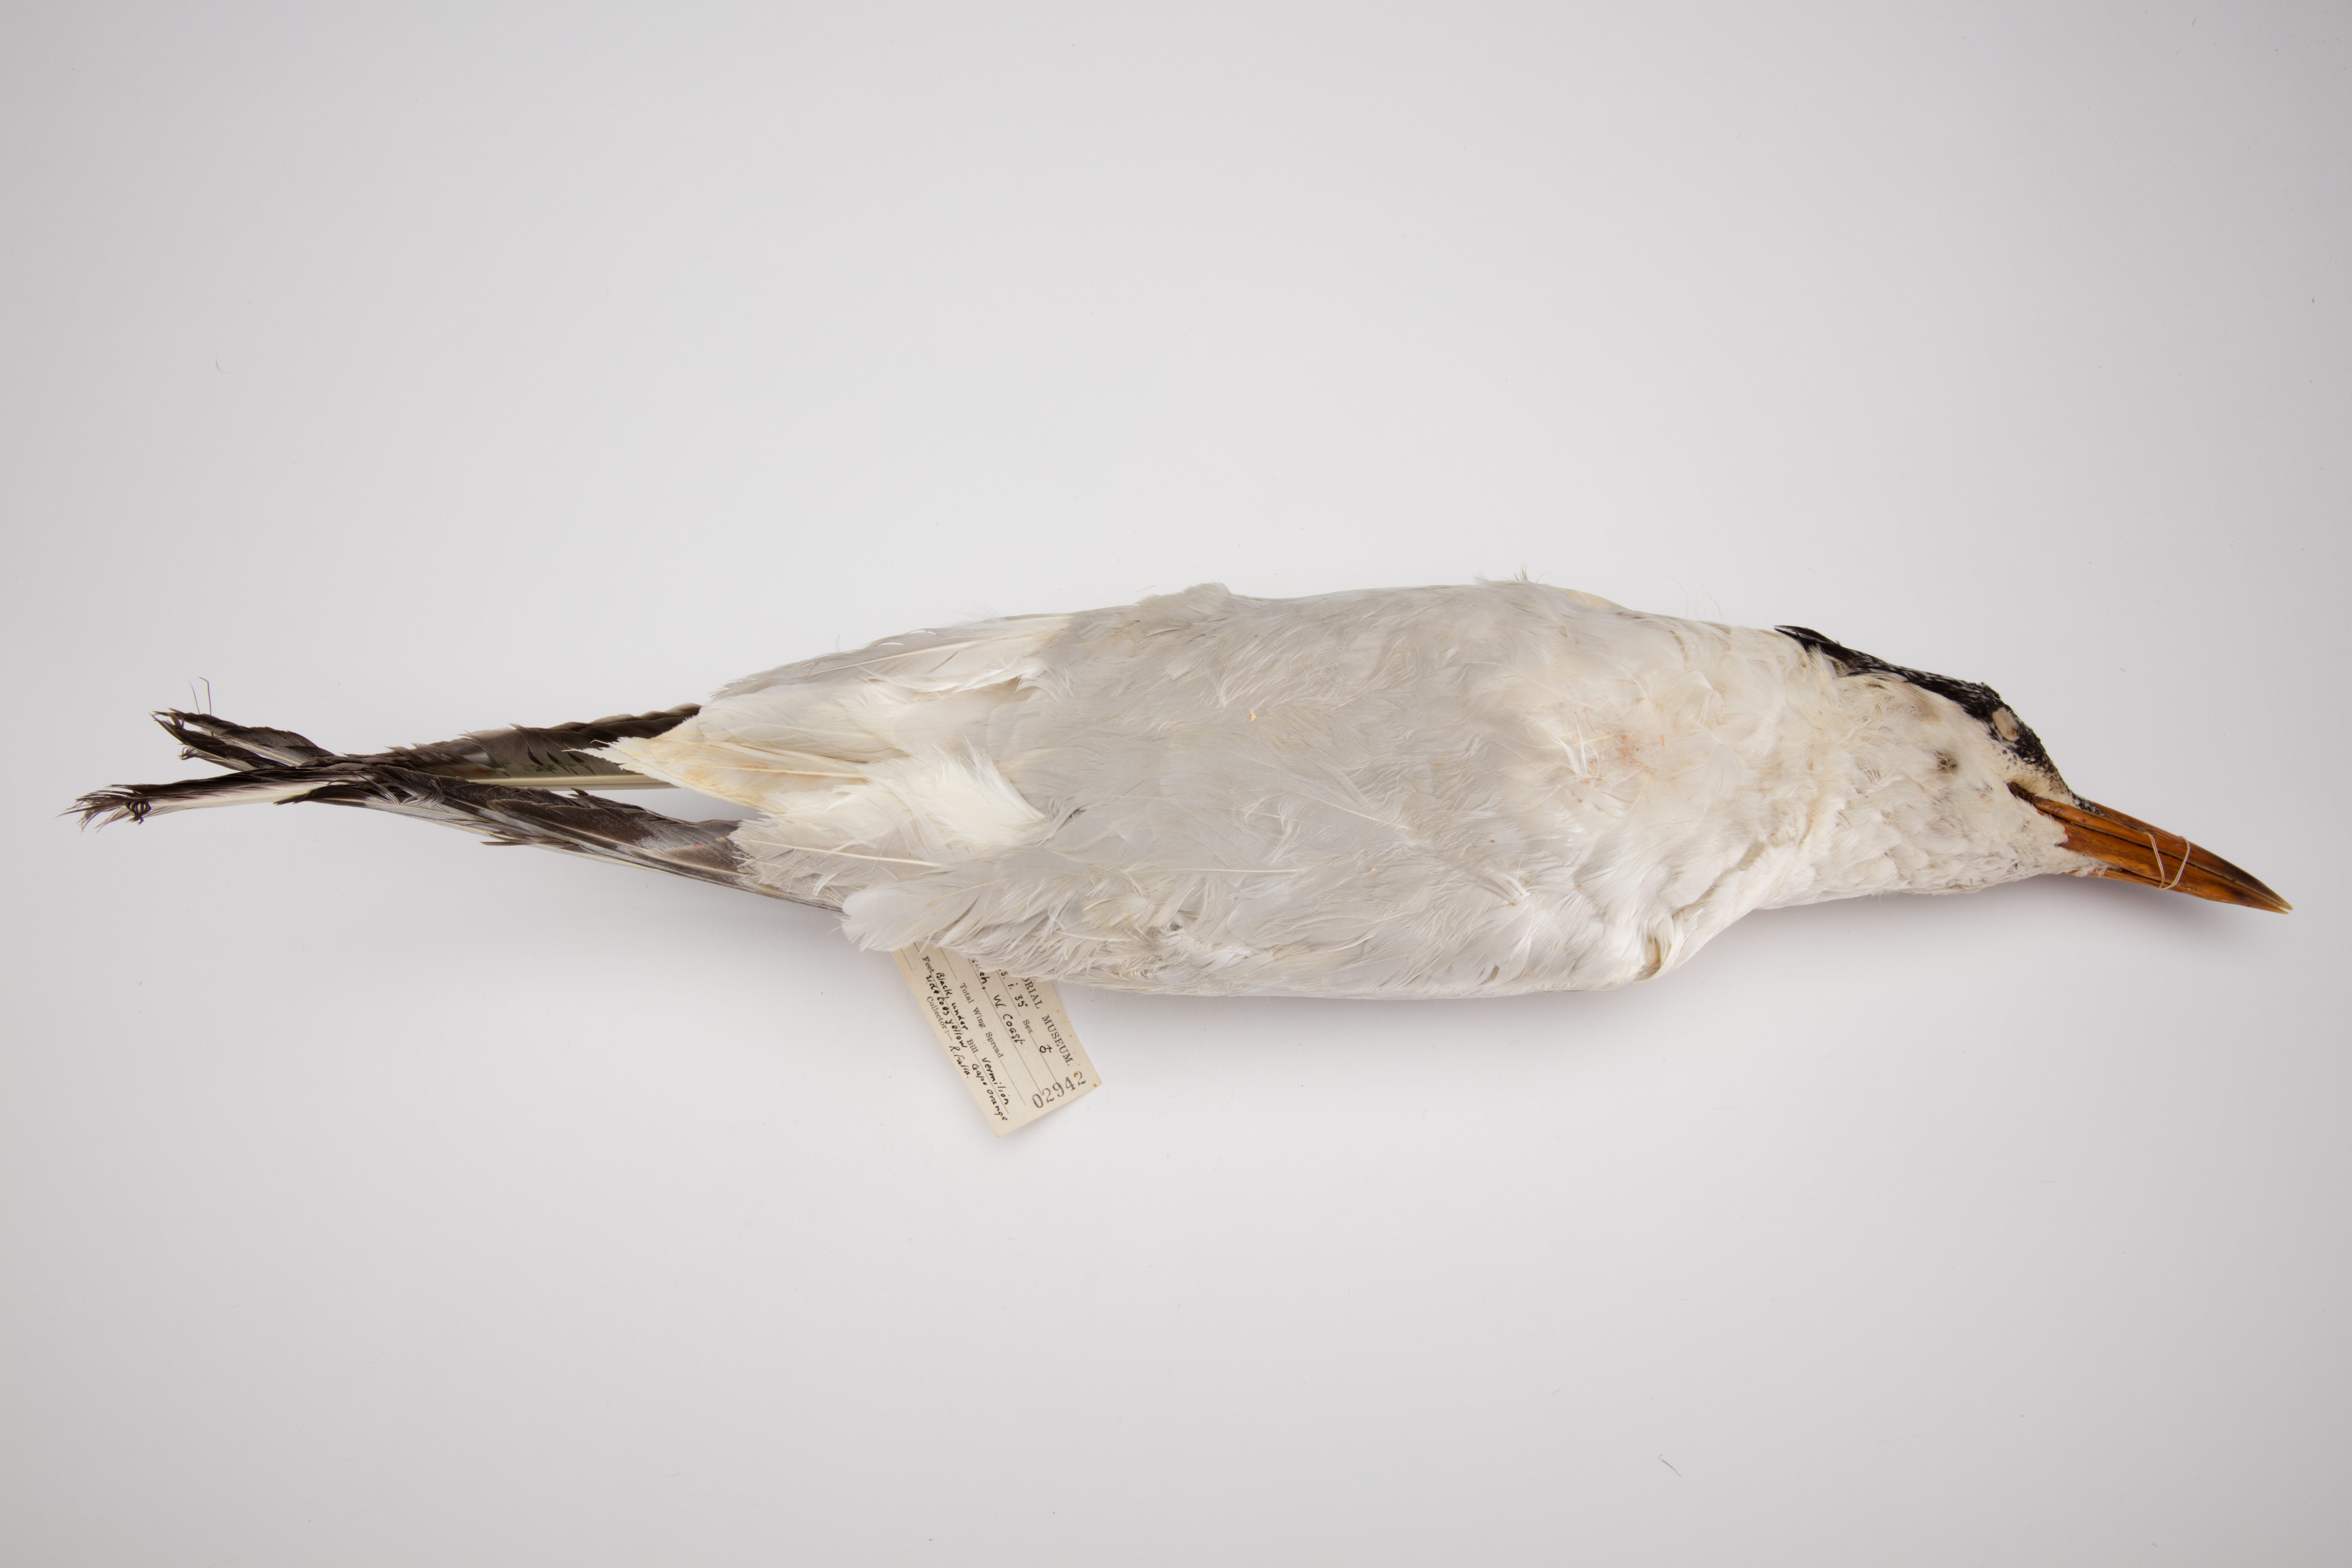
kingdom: Animalia
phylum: Chordata
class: Aves
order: Charadriiformes
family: Laridae
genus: Hydroprogne
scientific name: Hydroprogne caspia
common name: Caspian tern
